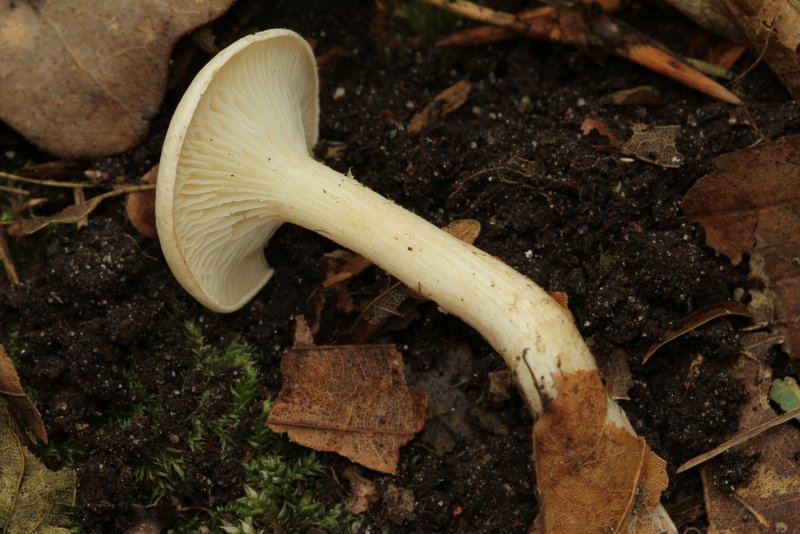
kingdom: Fungi
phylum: Basidiomycota
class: Agaricomycetes
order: Agaricales
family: Tricholomataceae
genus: Leucocybe
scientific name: Leucocybe candicans
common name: kridt-tragthat
